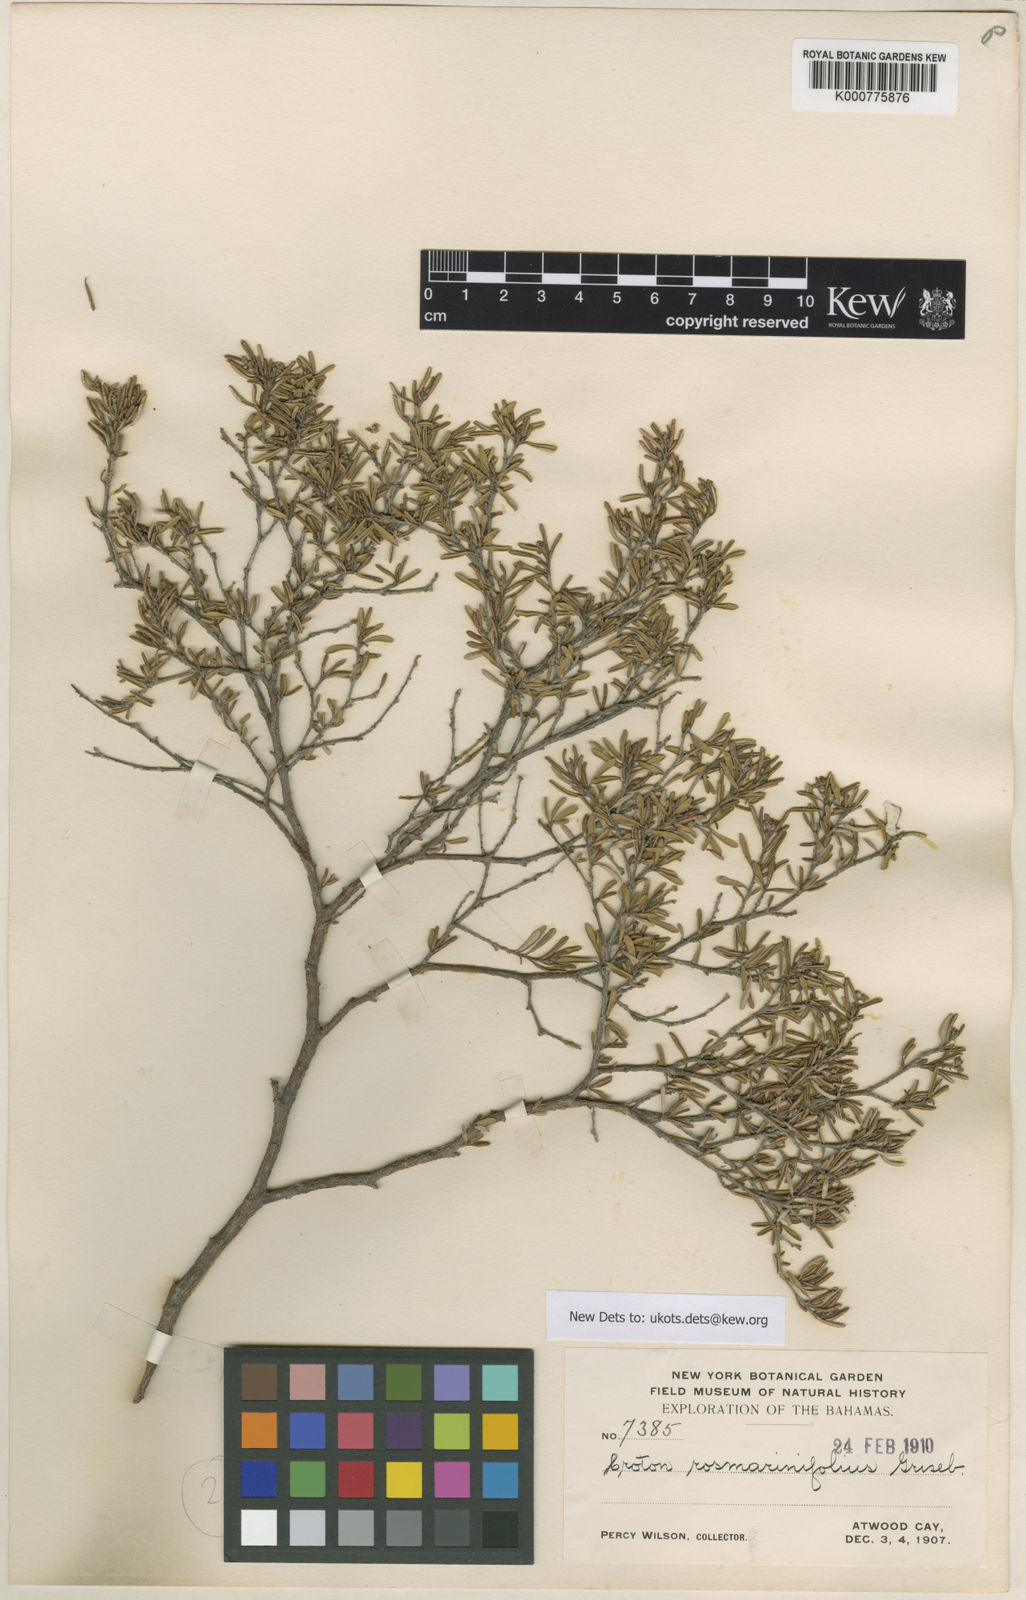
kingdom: Plantae
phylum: Tracheophyta
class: Magnoliopsida
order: Malpighiales
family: Euphorbiaceae
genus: Croton
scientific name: Croton
